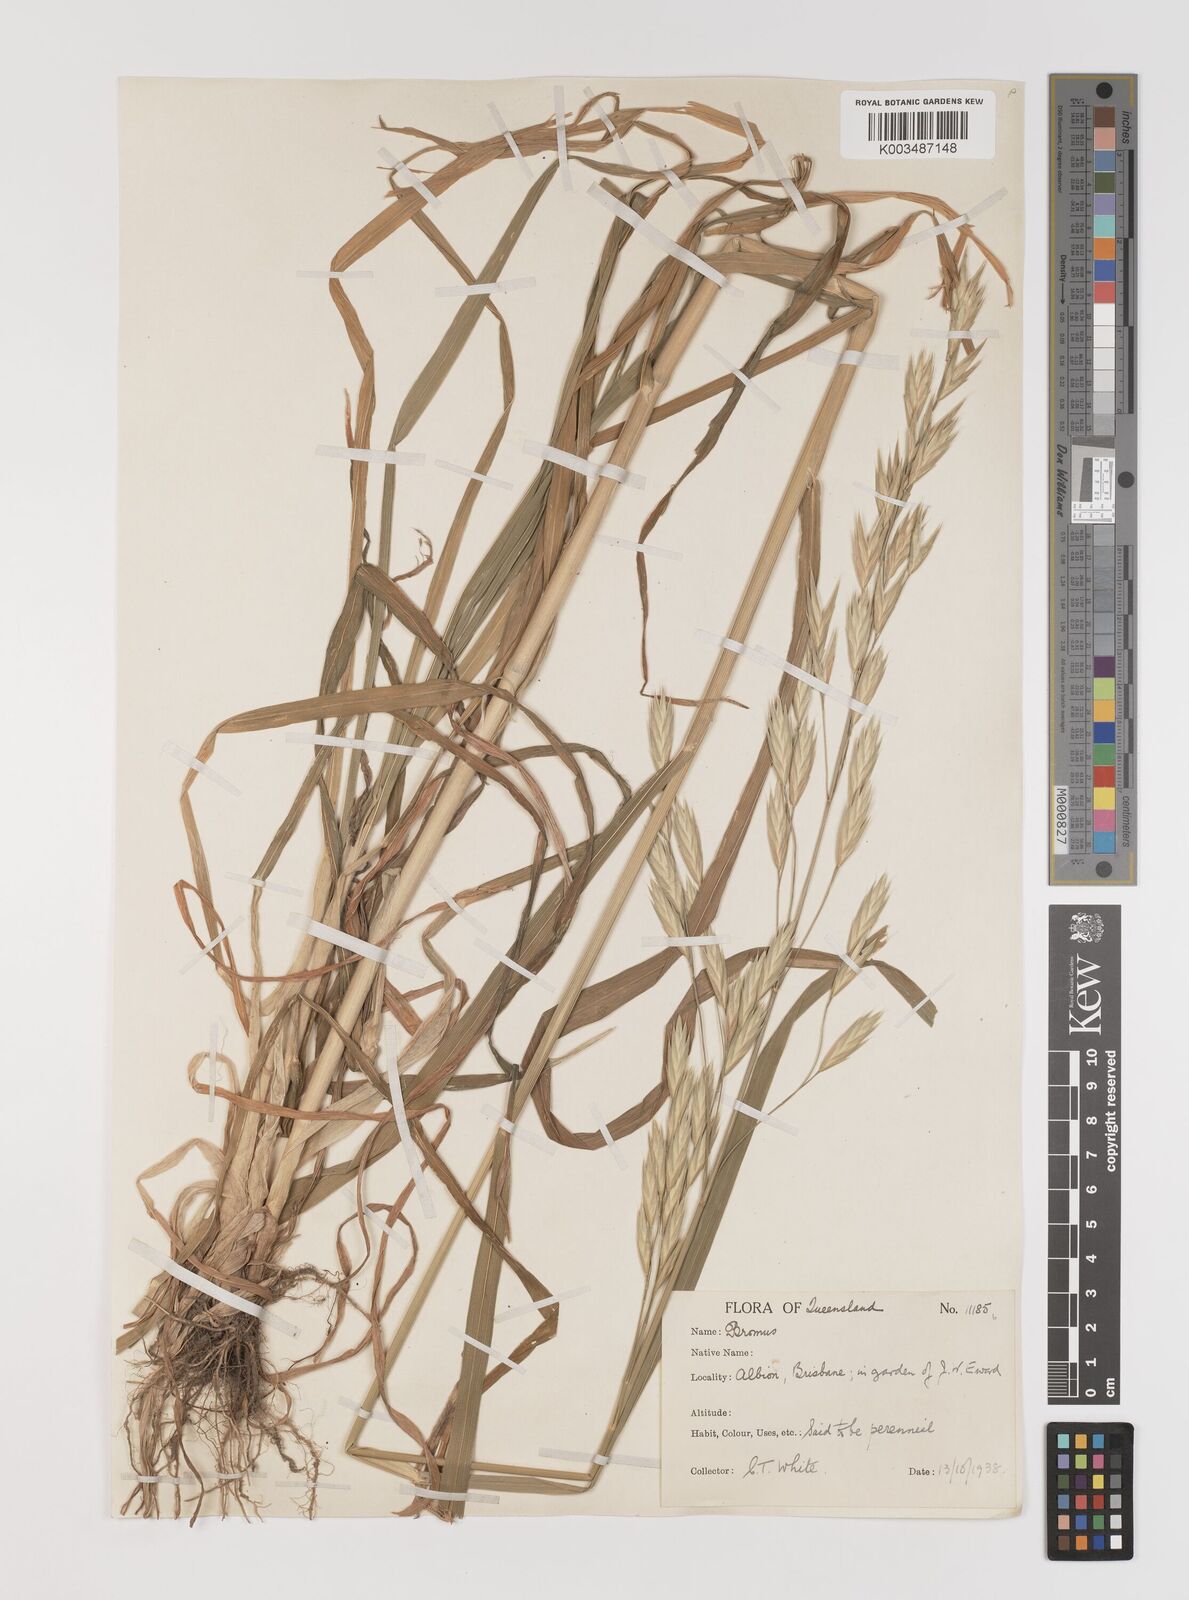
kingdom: Plantae
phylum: Tracheophyta
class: Liliopsida
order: Poales
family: Poaceae
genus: Bromus
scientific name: Bromus catharticus
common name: Rescuegrass
